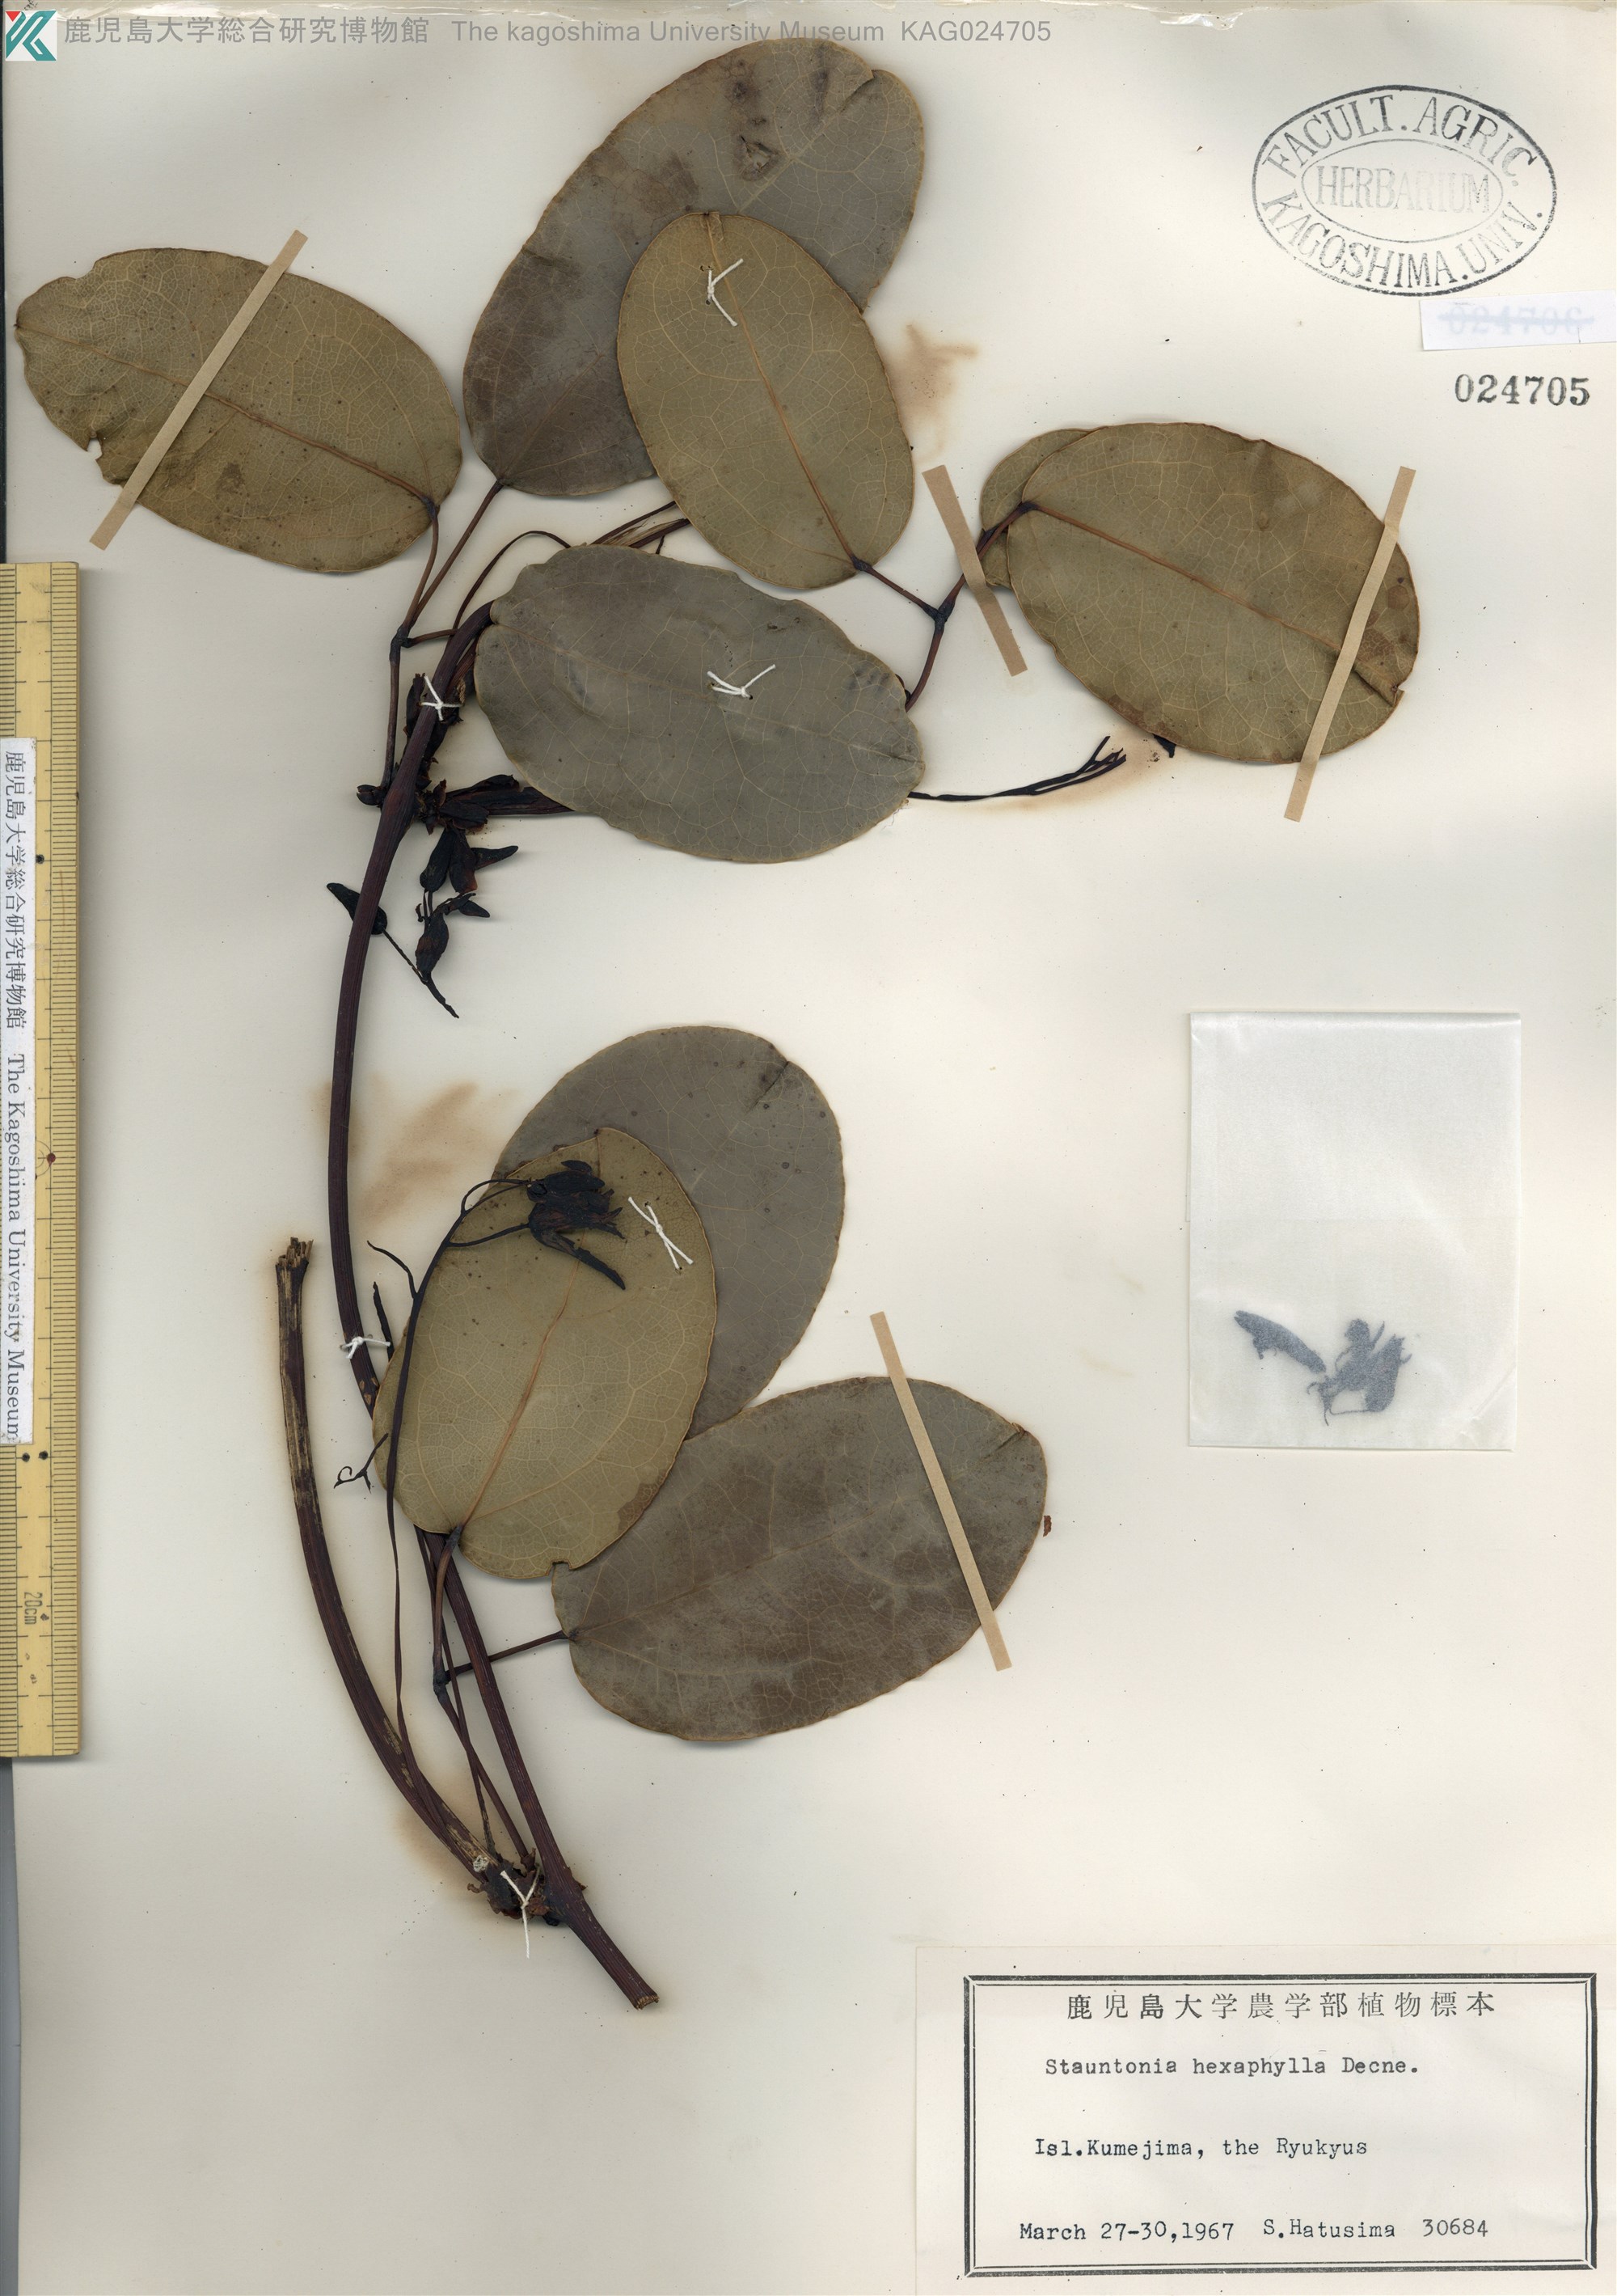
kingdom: Plantae
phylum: Tracheophyta
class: Magnoliopsida
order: Ranunculales
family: Lardizabalaceae
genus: Stauntonia
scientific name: Stauntonia hexaphylla
